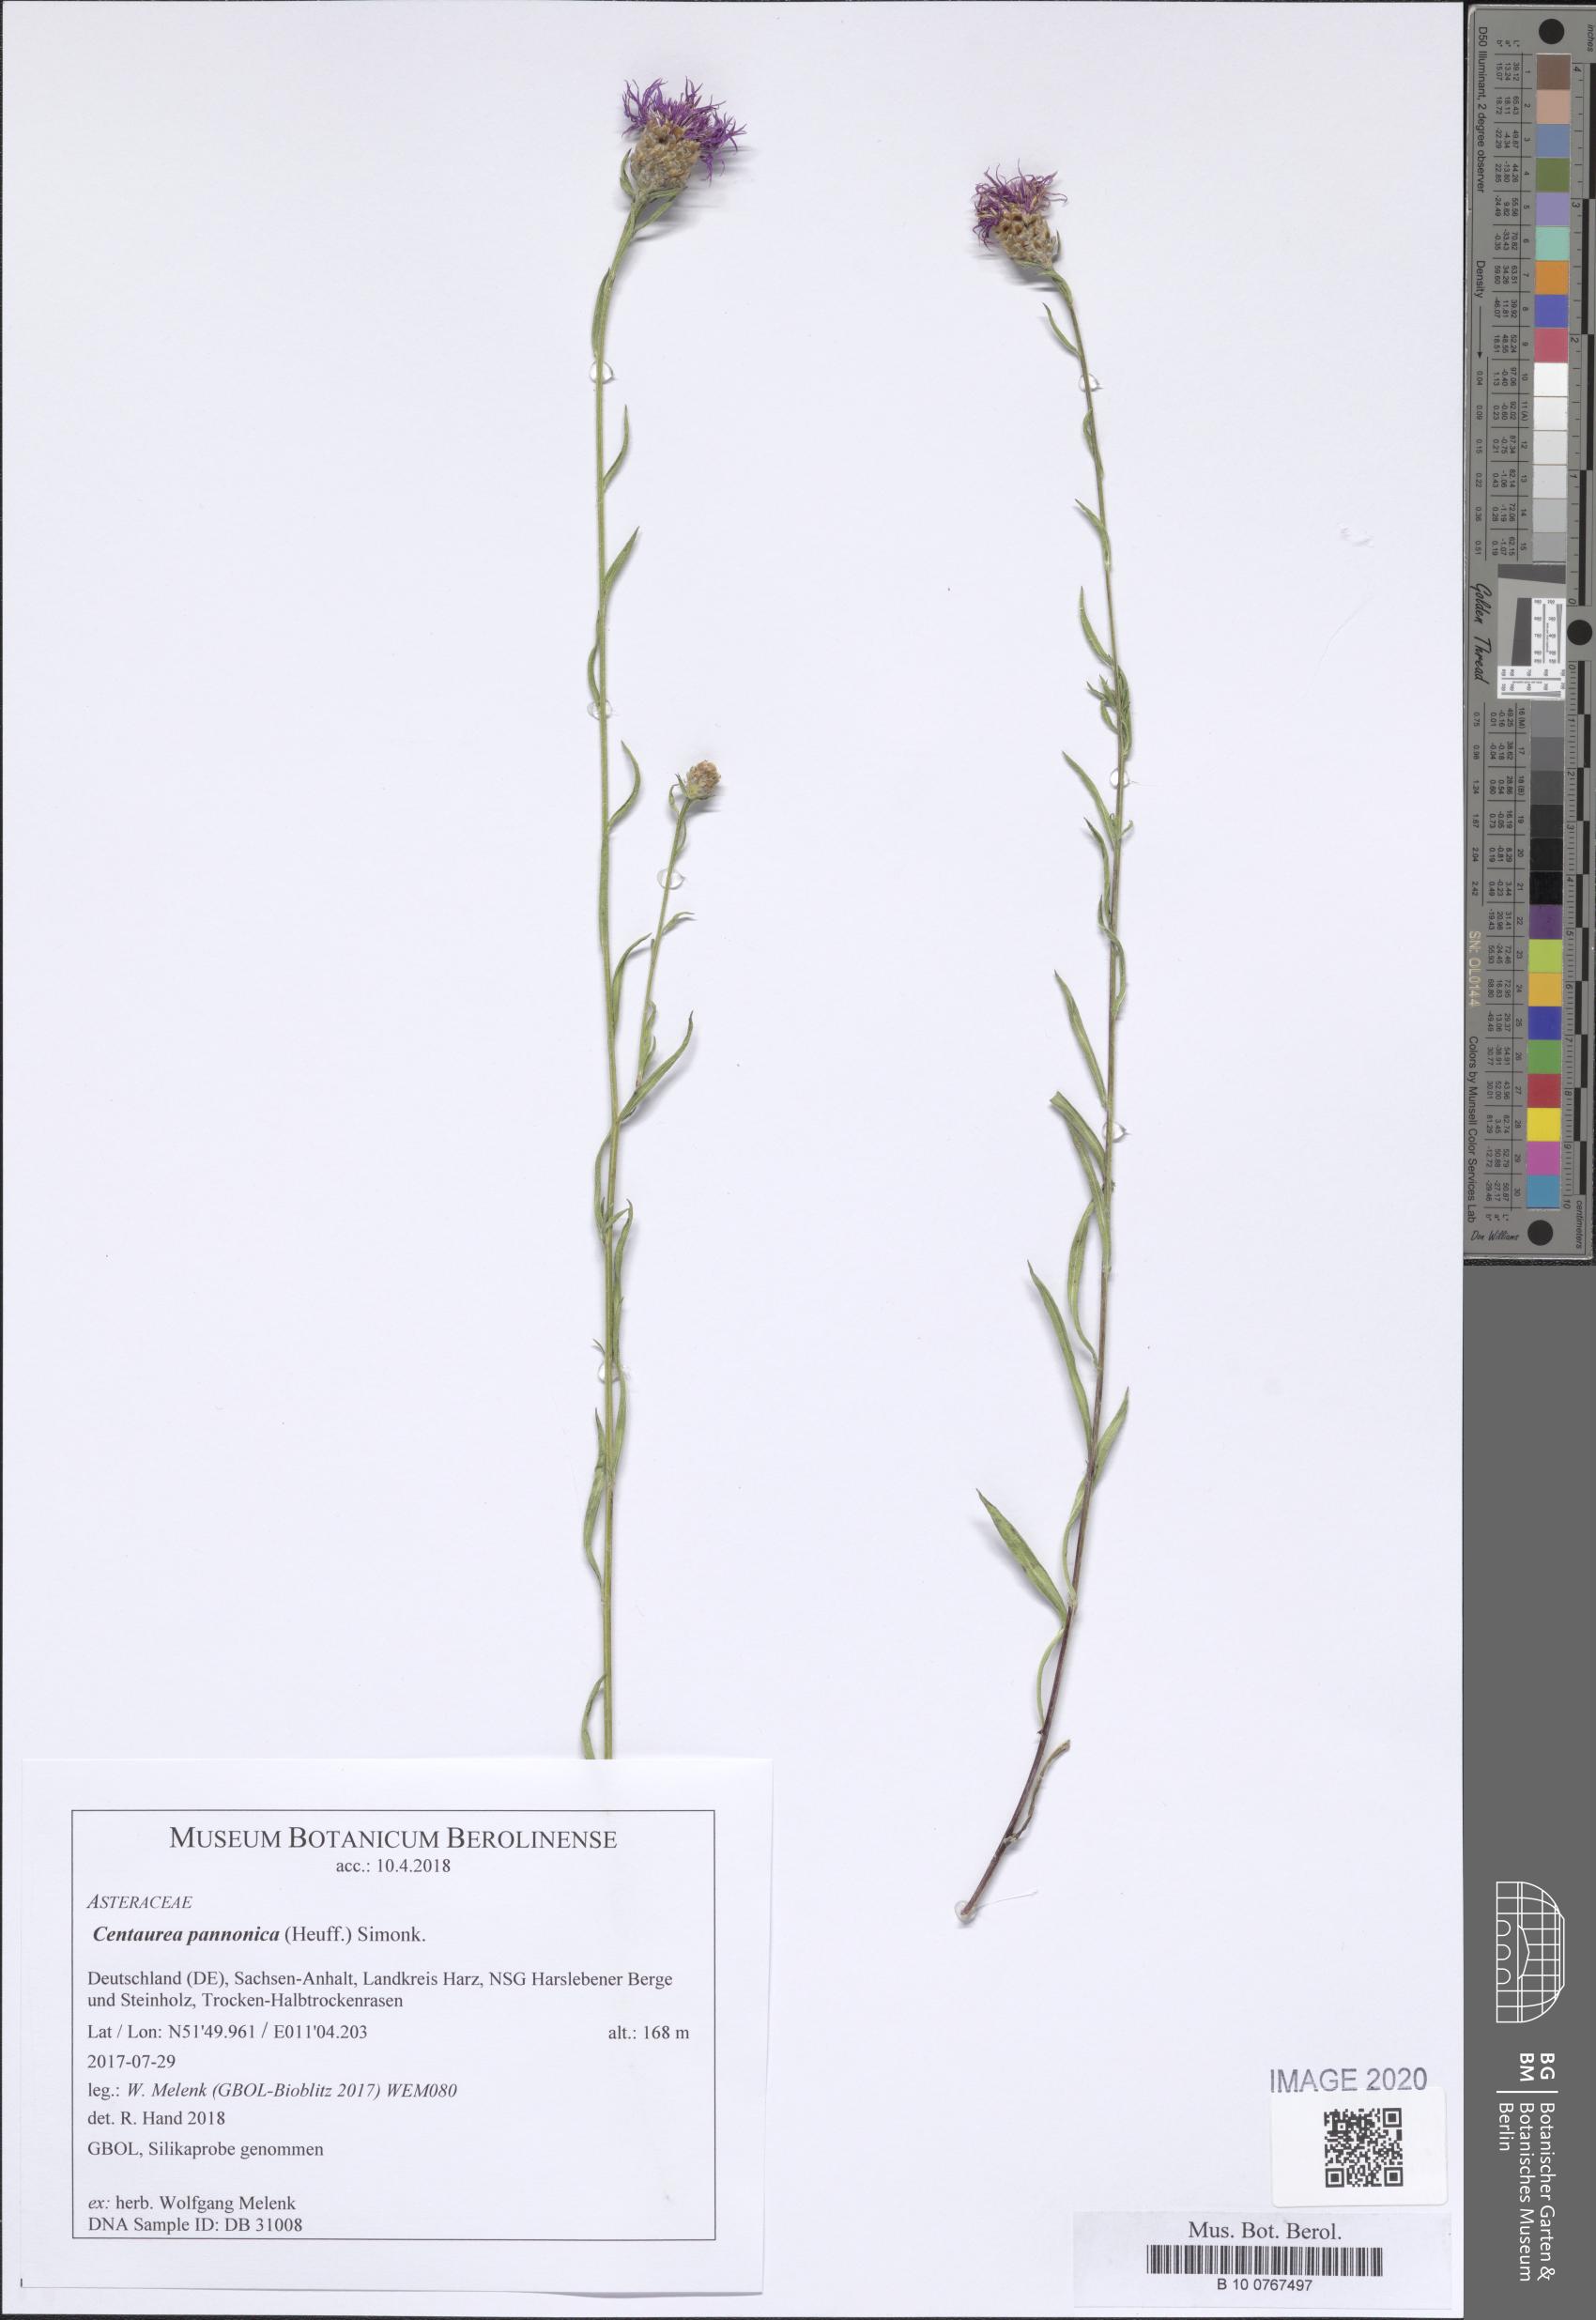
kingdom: Plantae
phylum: Tracheophyta
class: Magnoliopsida
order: Asterales
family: Asteraceae
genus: Centaurea
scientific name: Centaurea pannonica
